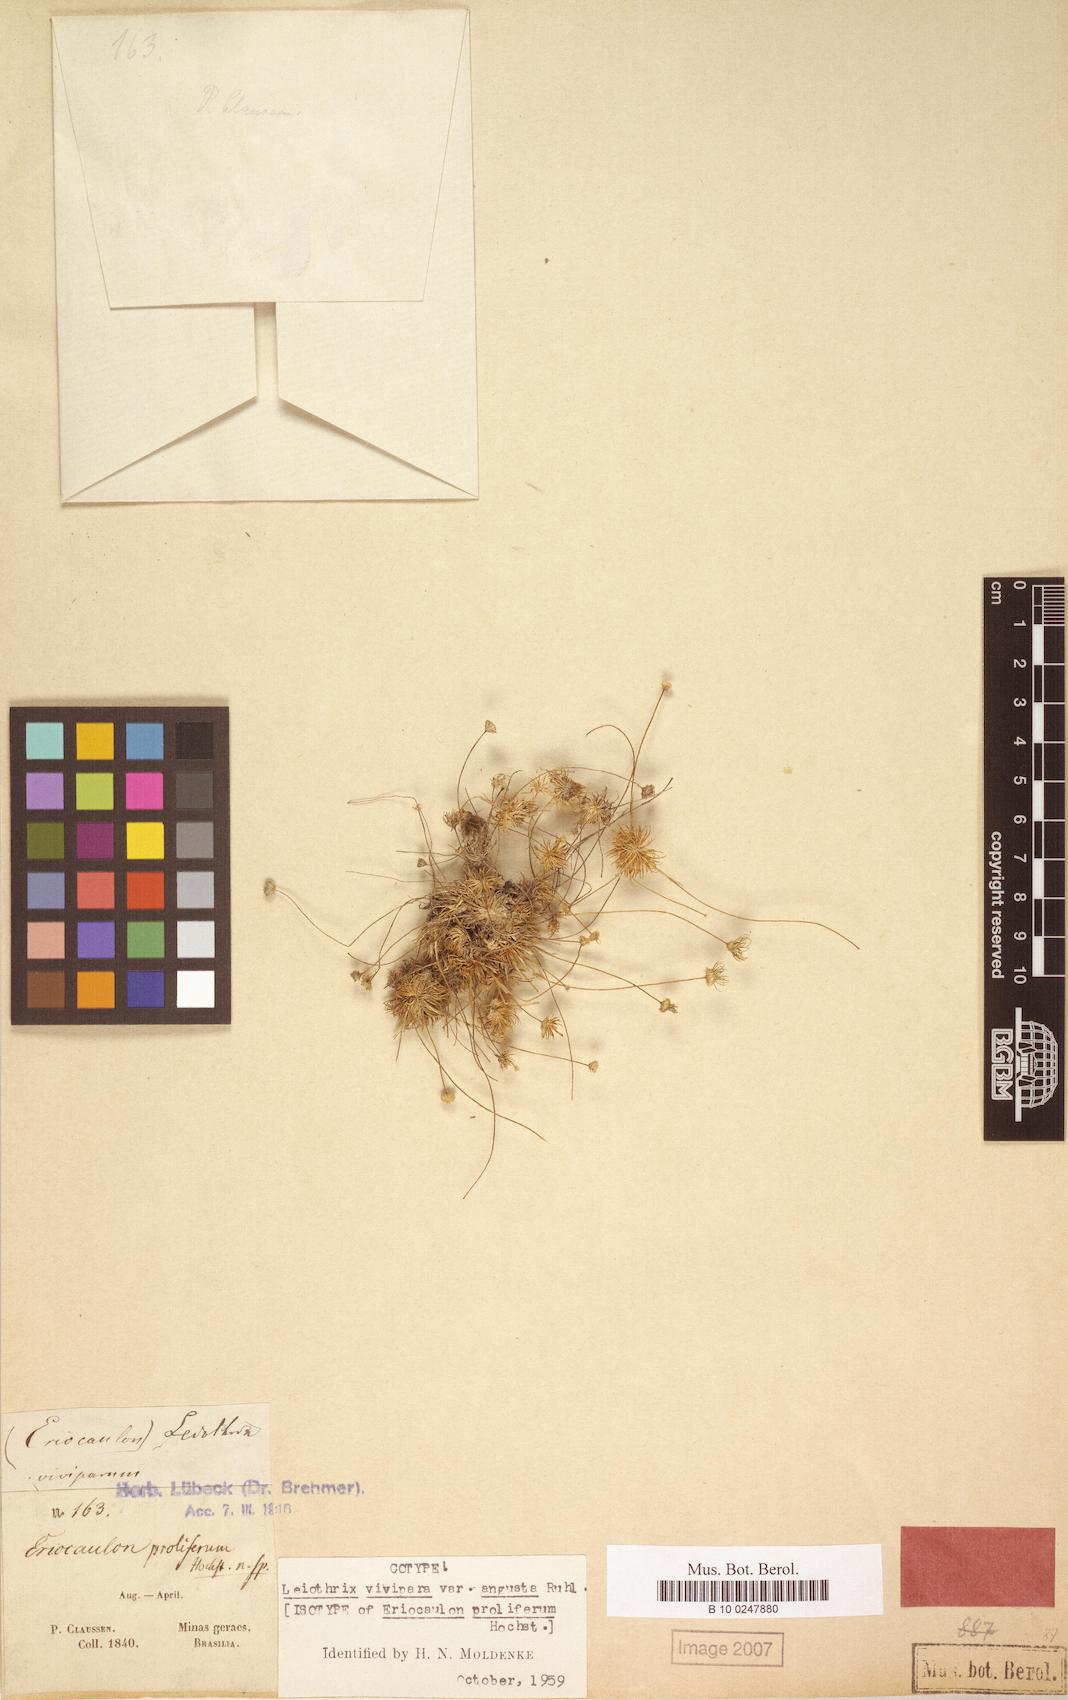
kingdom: Plantae
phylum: Tracheophyta
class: Liliopsida
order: Poales
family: Eriocaulaceae
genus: Leiothrix
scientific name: Leiothrix vivipara
